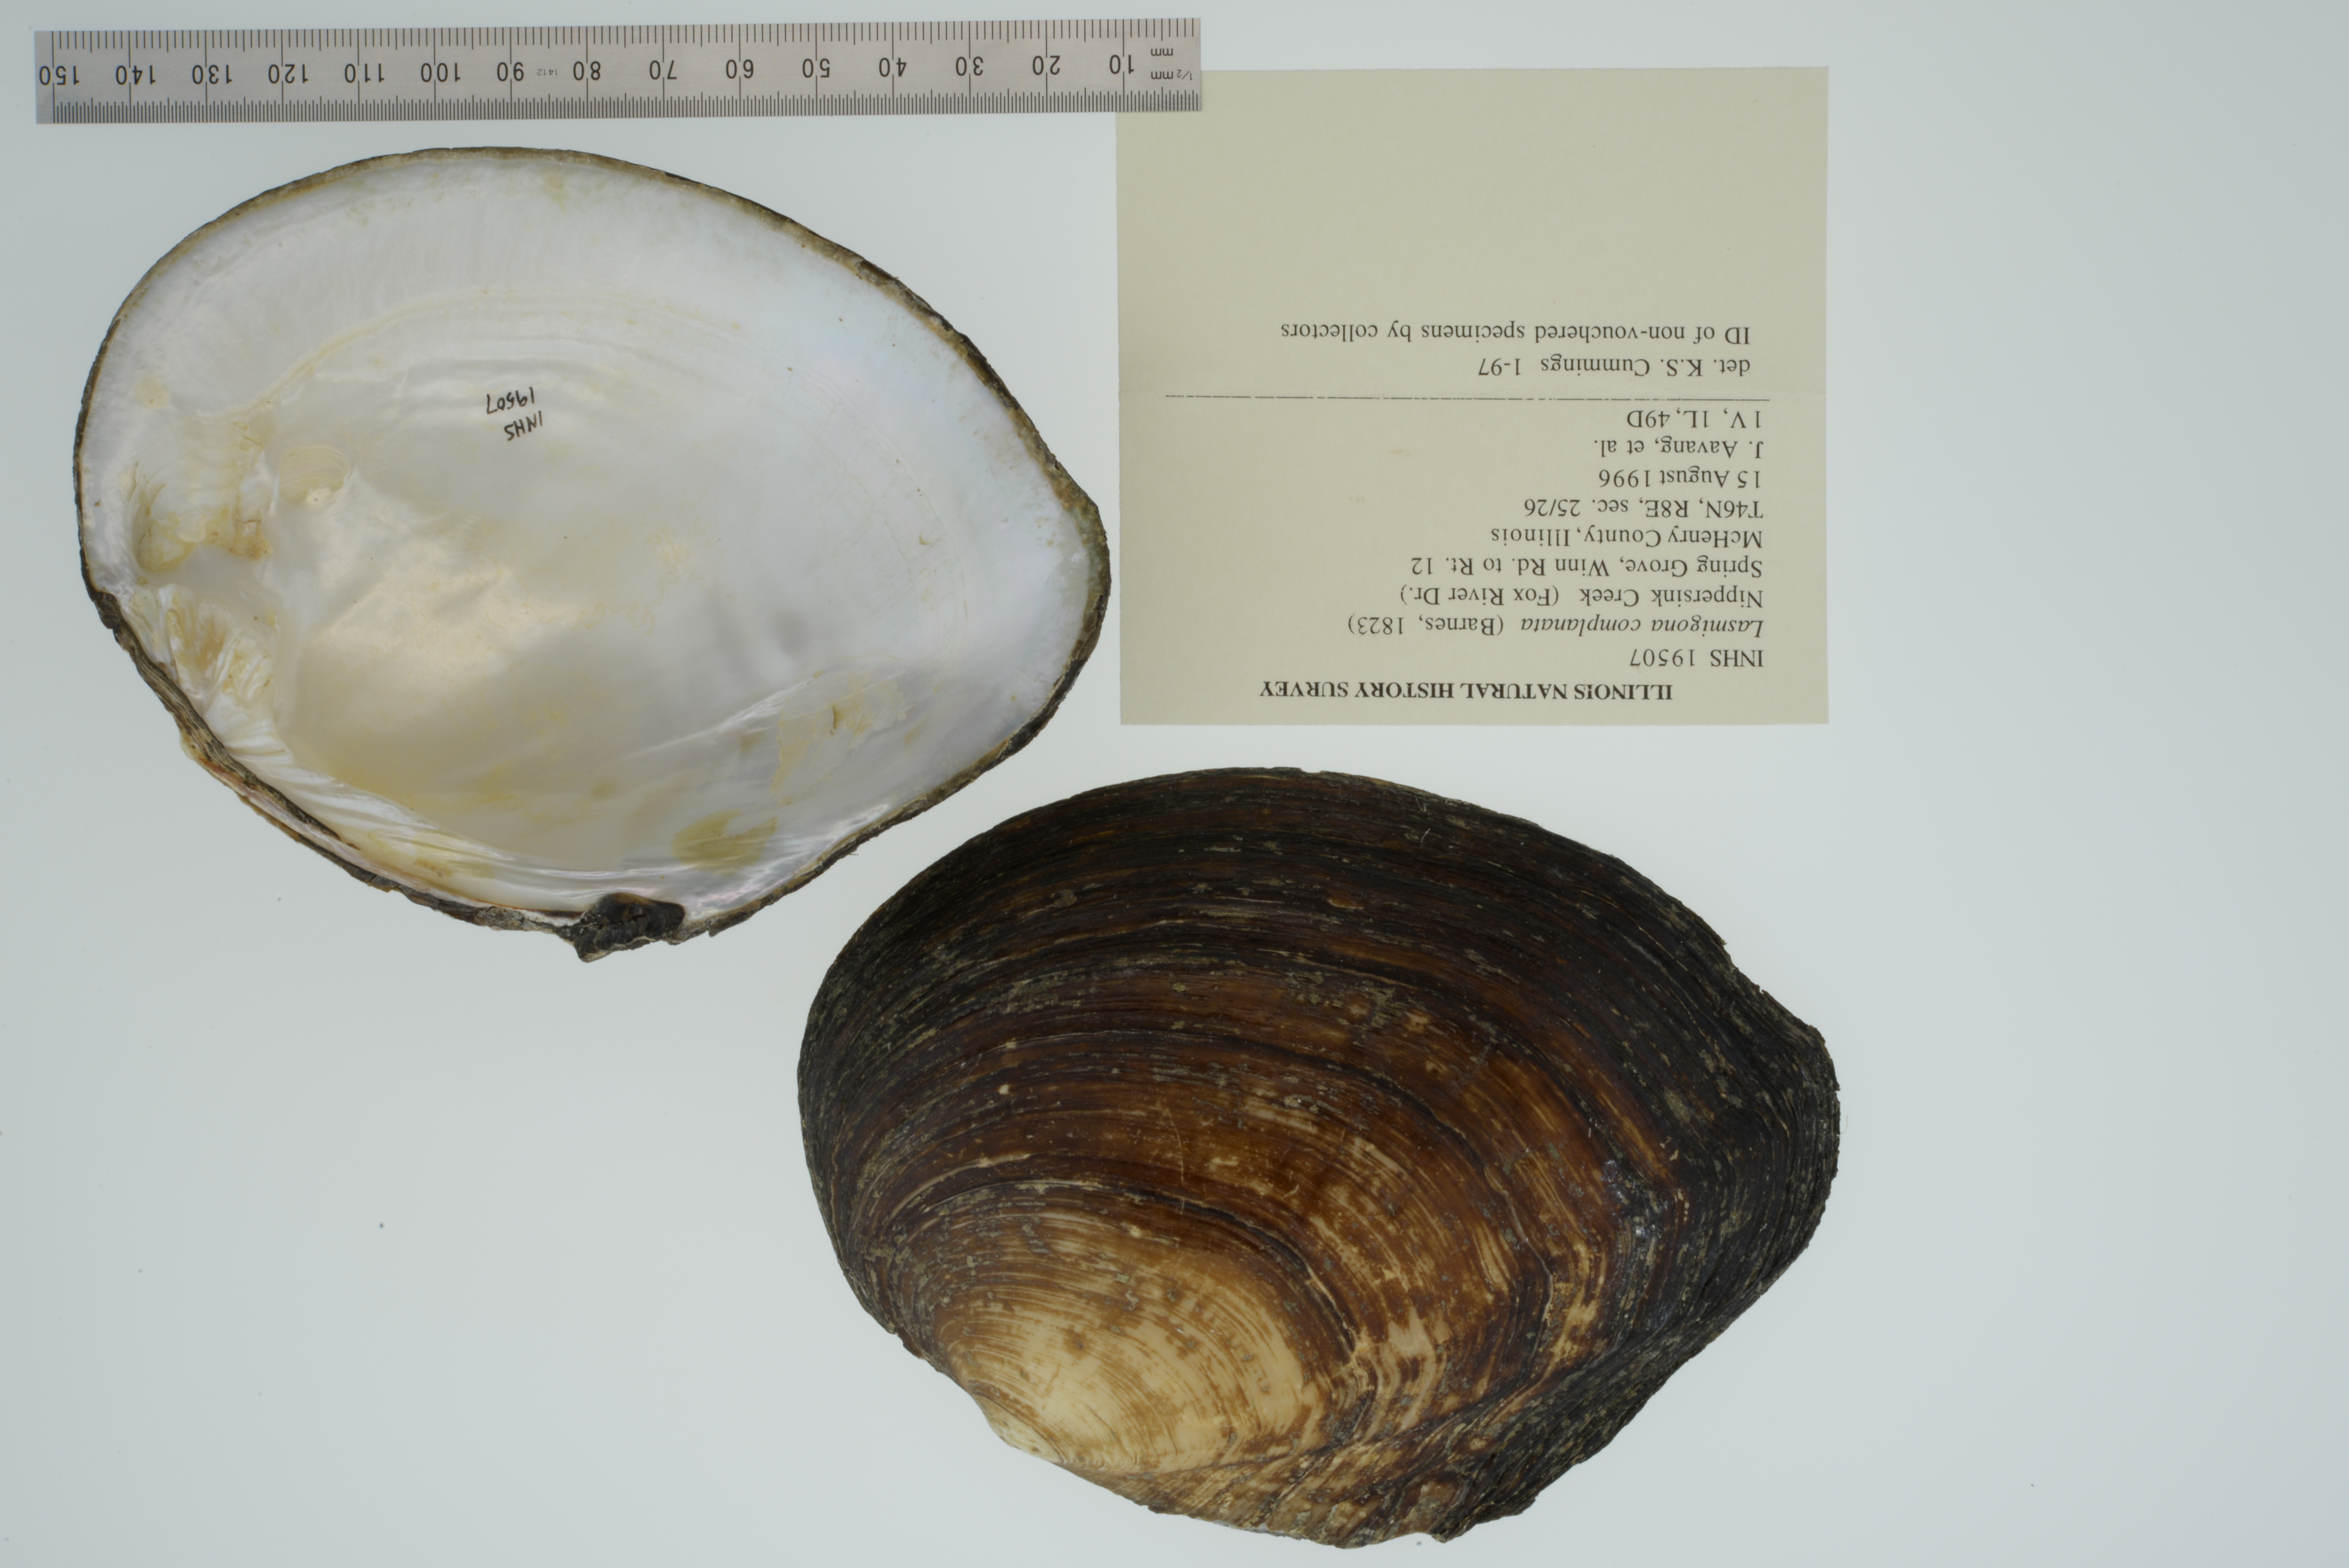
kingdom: Animalia
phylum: Mollusca
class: Bivalvia
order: Unionida
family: Unionidae
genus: Lasmigona
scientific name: Lasmigona complanata
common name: White heelsplitter
